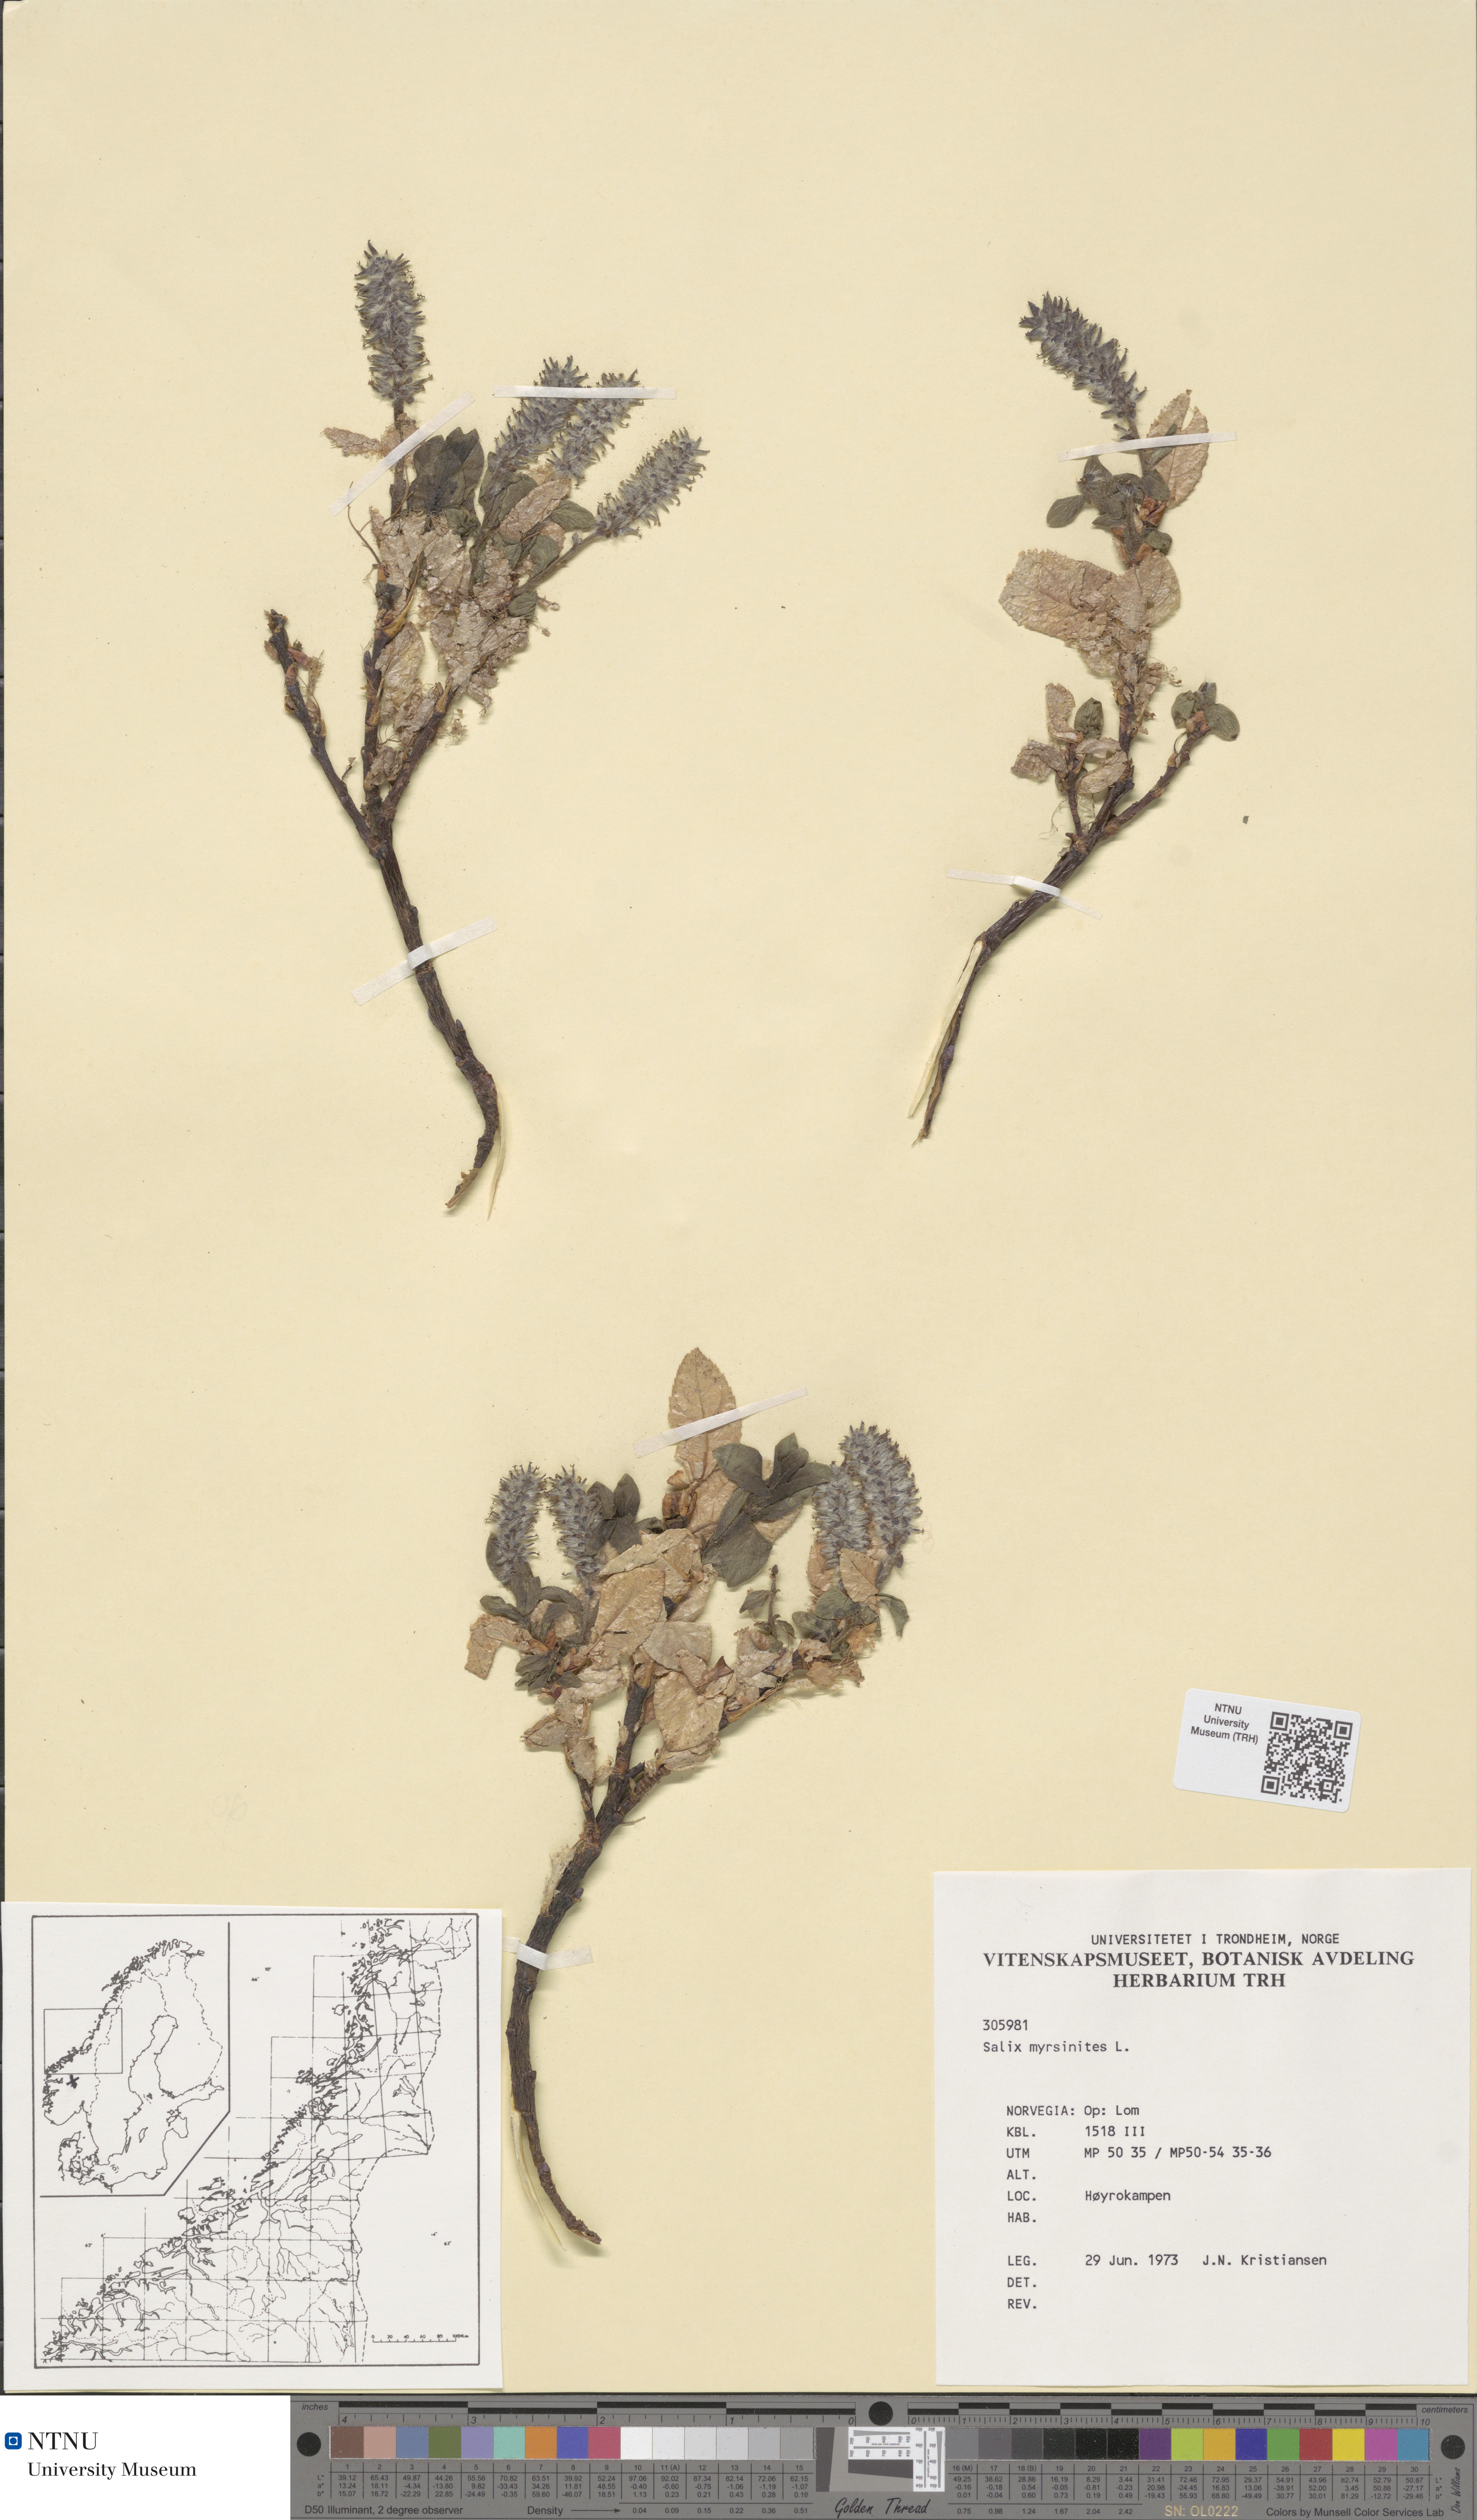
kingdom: Plantae
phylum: Tracheophyta
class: Magnoliopsida
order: Malpighiales
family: Salicaceae
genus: Salix
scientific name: Salix myrsinites
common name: Myrtle willow
